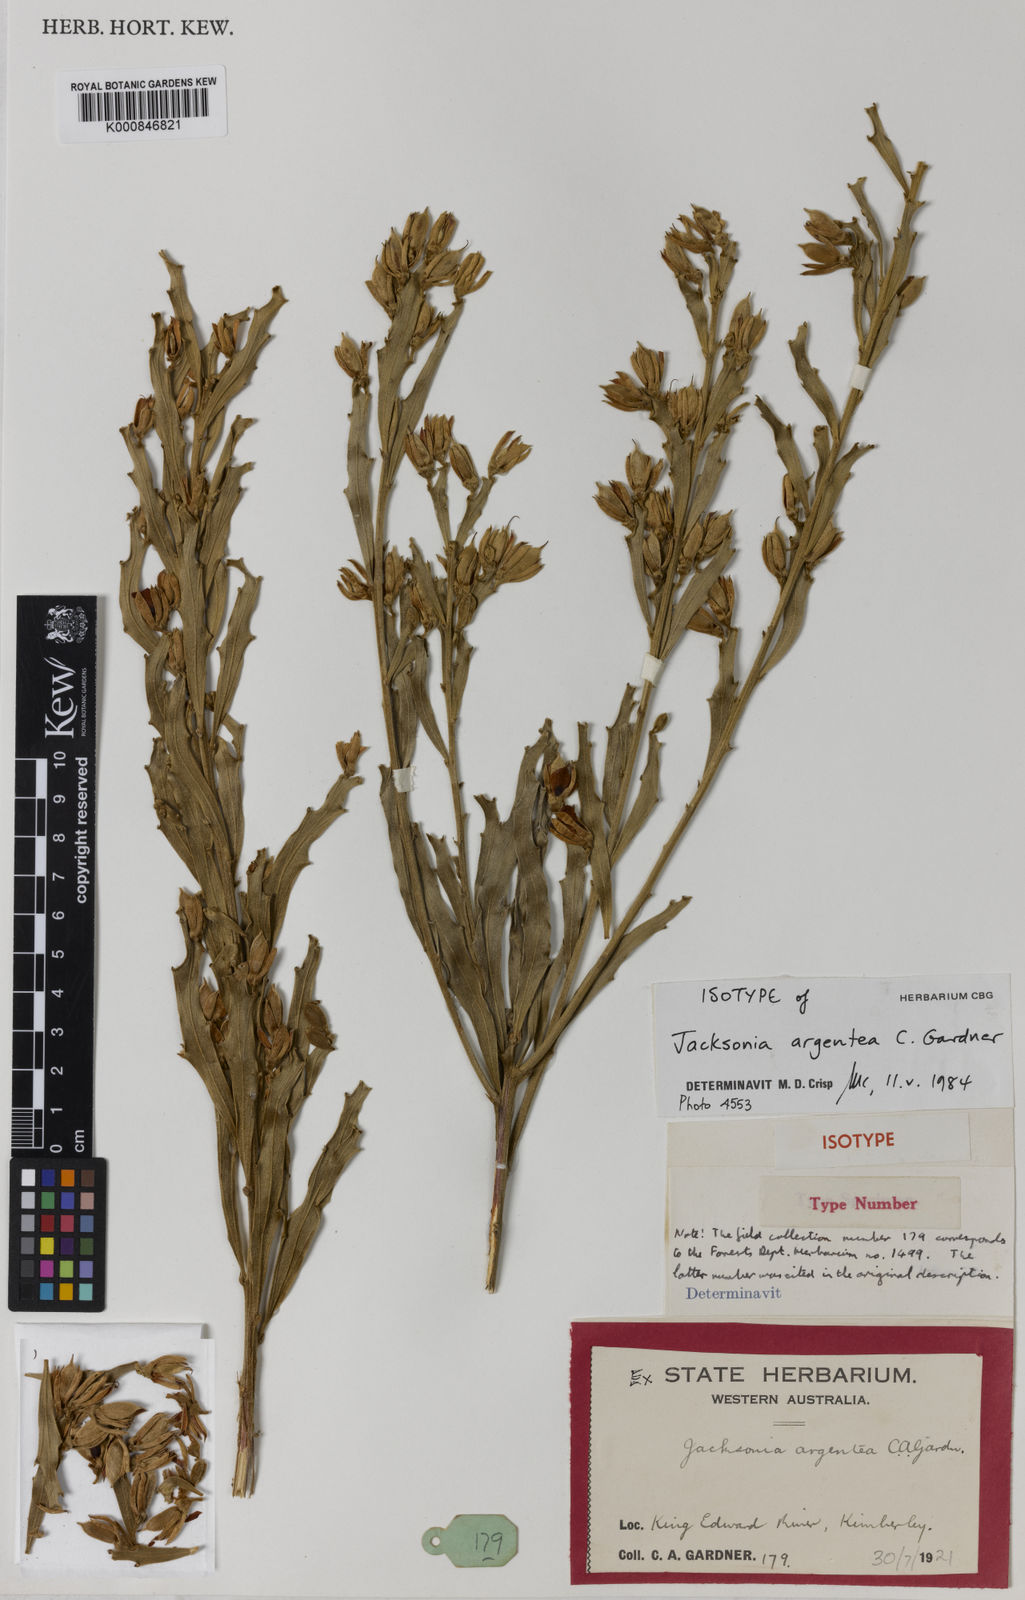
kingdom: Plantae
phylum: Tracheophyta
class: Magnoliopsida
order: Fabales
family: Fabaceae
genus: Jacksonia
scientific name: Jacksonia argentea
